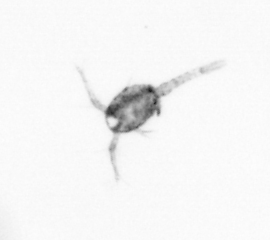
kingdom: Animalia
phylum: Arthropoda
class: Copepoda
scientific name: Copepoda
